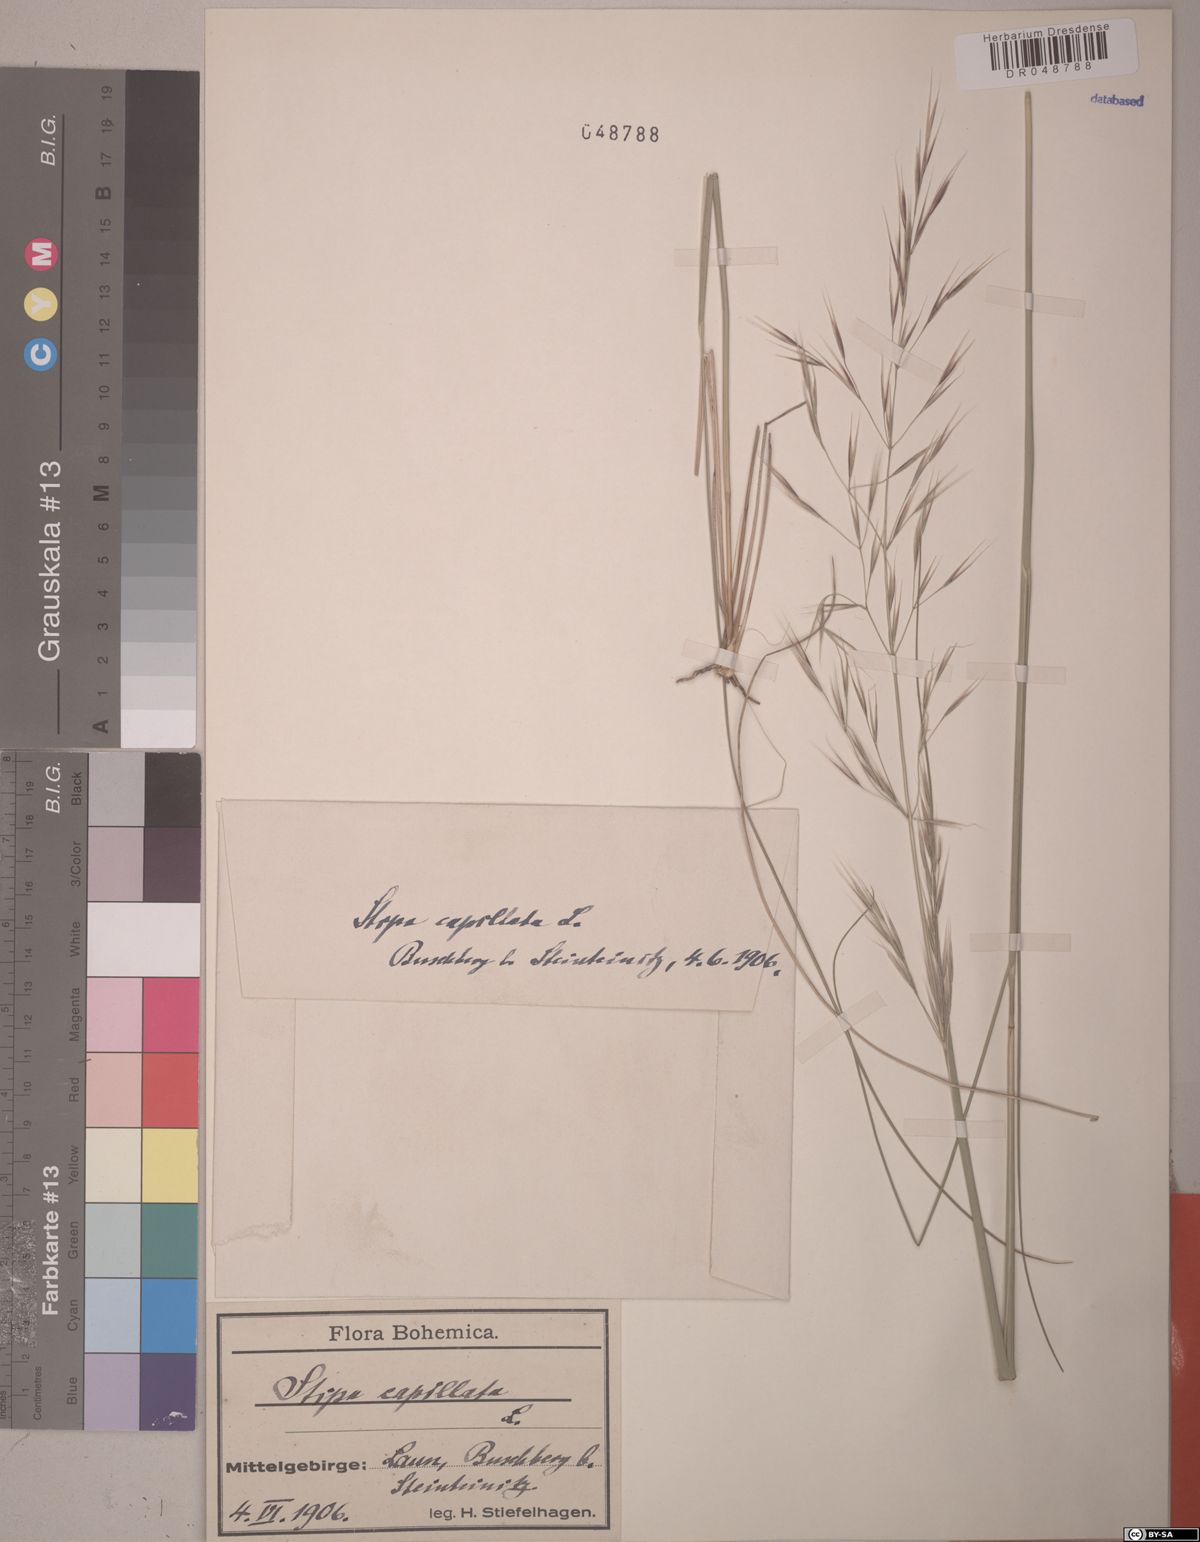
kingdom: Plantae
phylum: Tracheophyta
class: Liliopsida
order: Poales
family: Poaceae
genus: Stipa
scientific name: Stipa capillata
